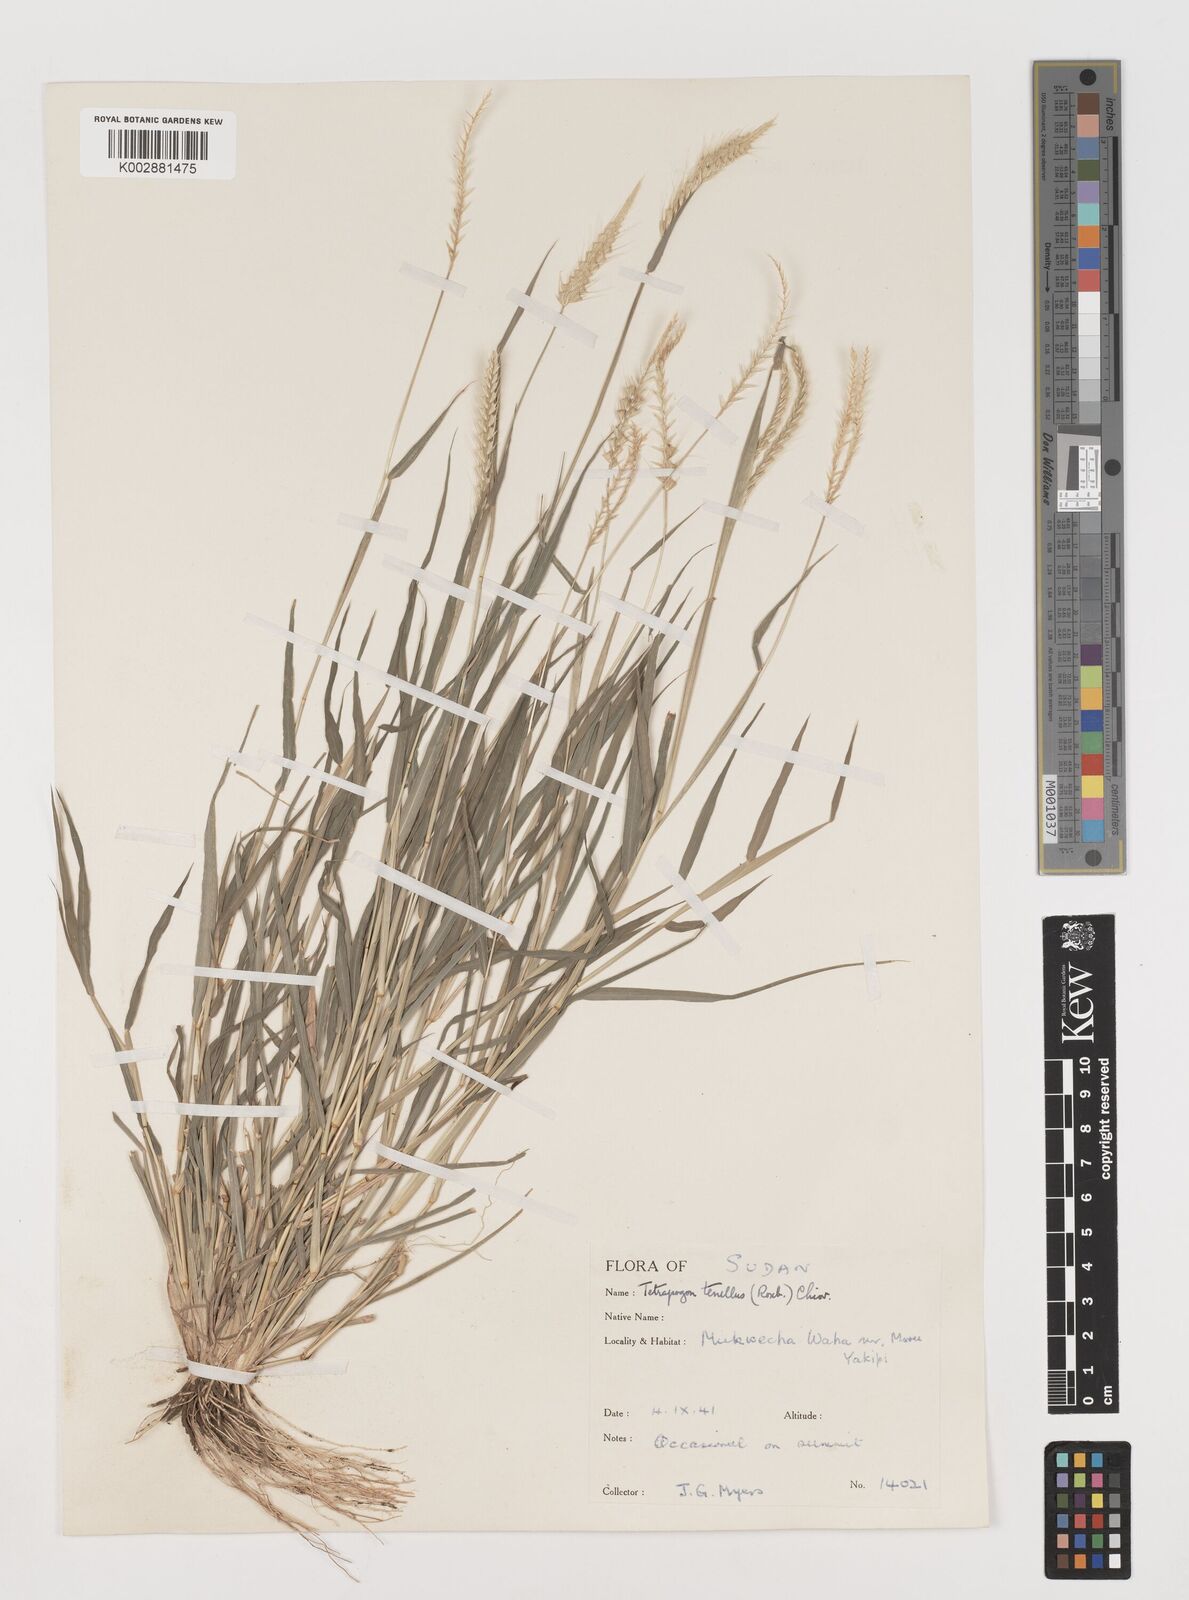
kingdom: Plantae
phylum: Tracheophyta
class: Liliopsida
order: Poales
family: Poaceae
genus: Tetrapogon
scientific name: Tetrapogon tenellus
